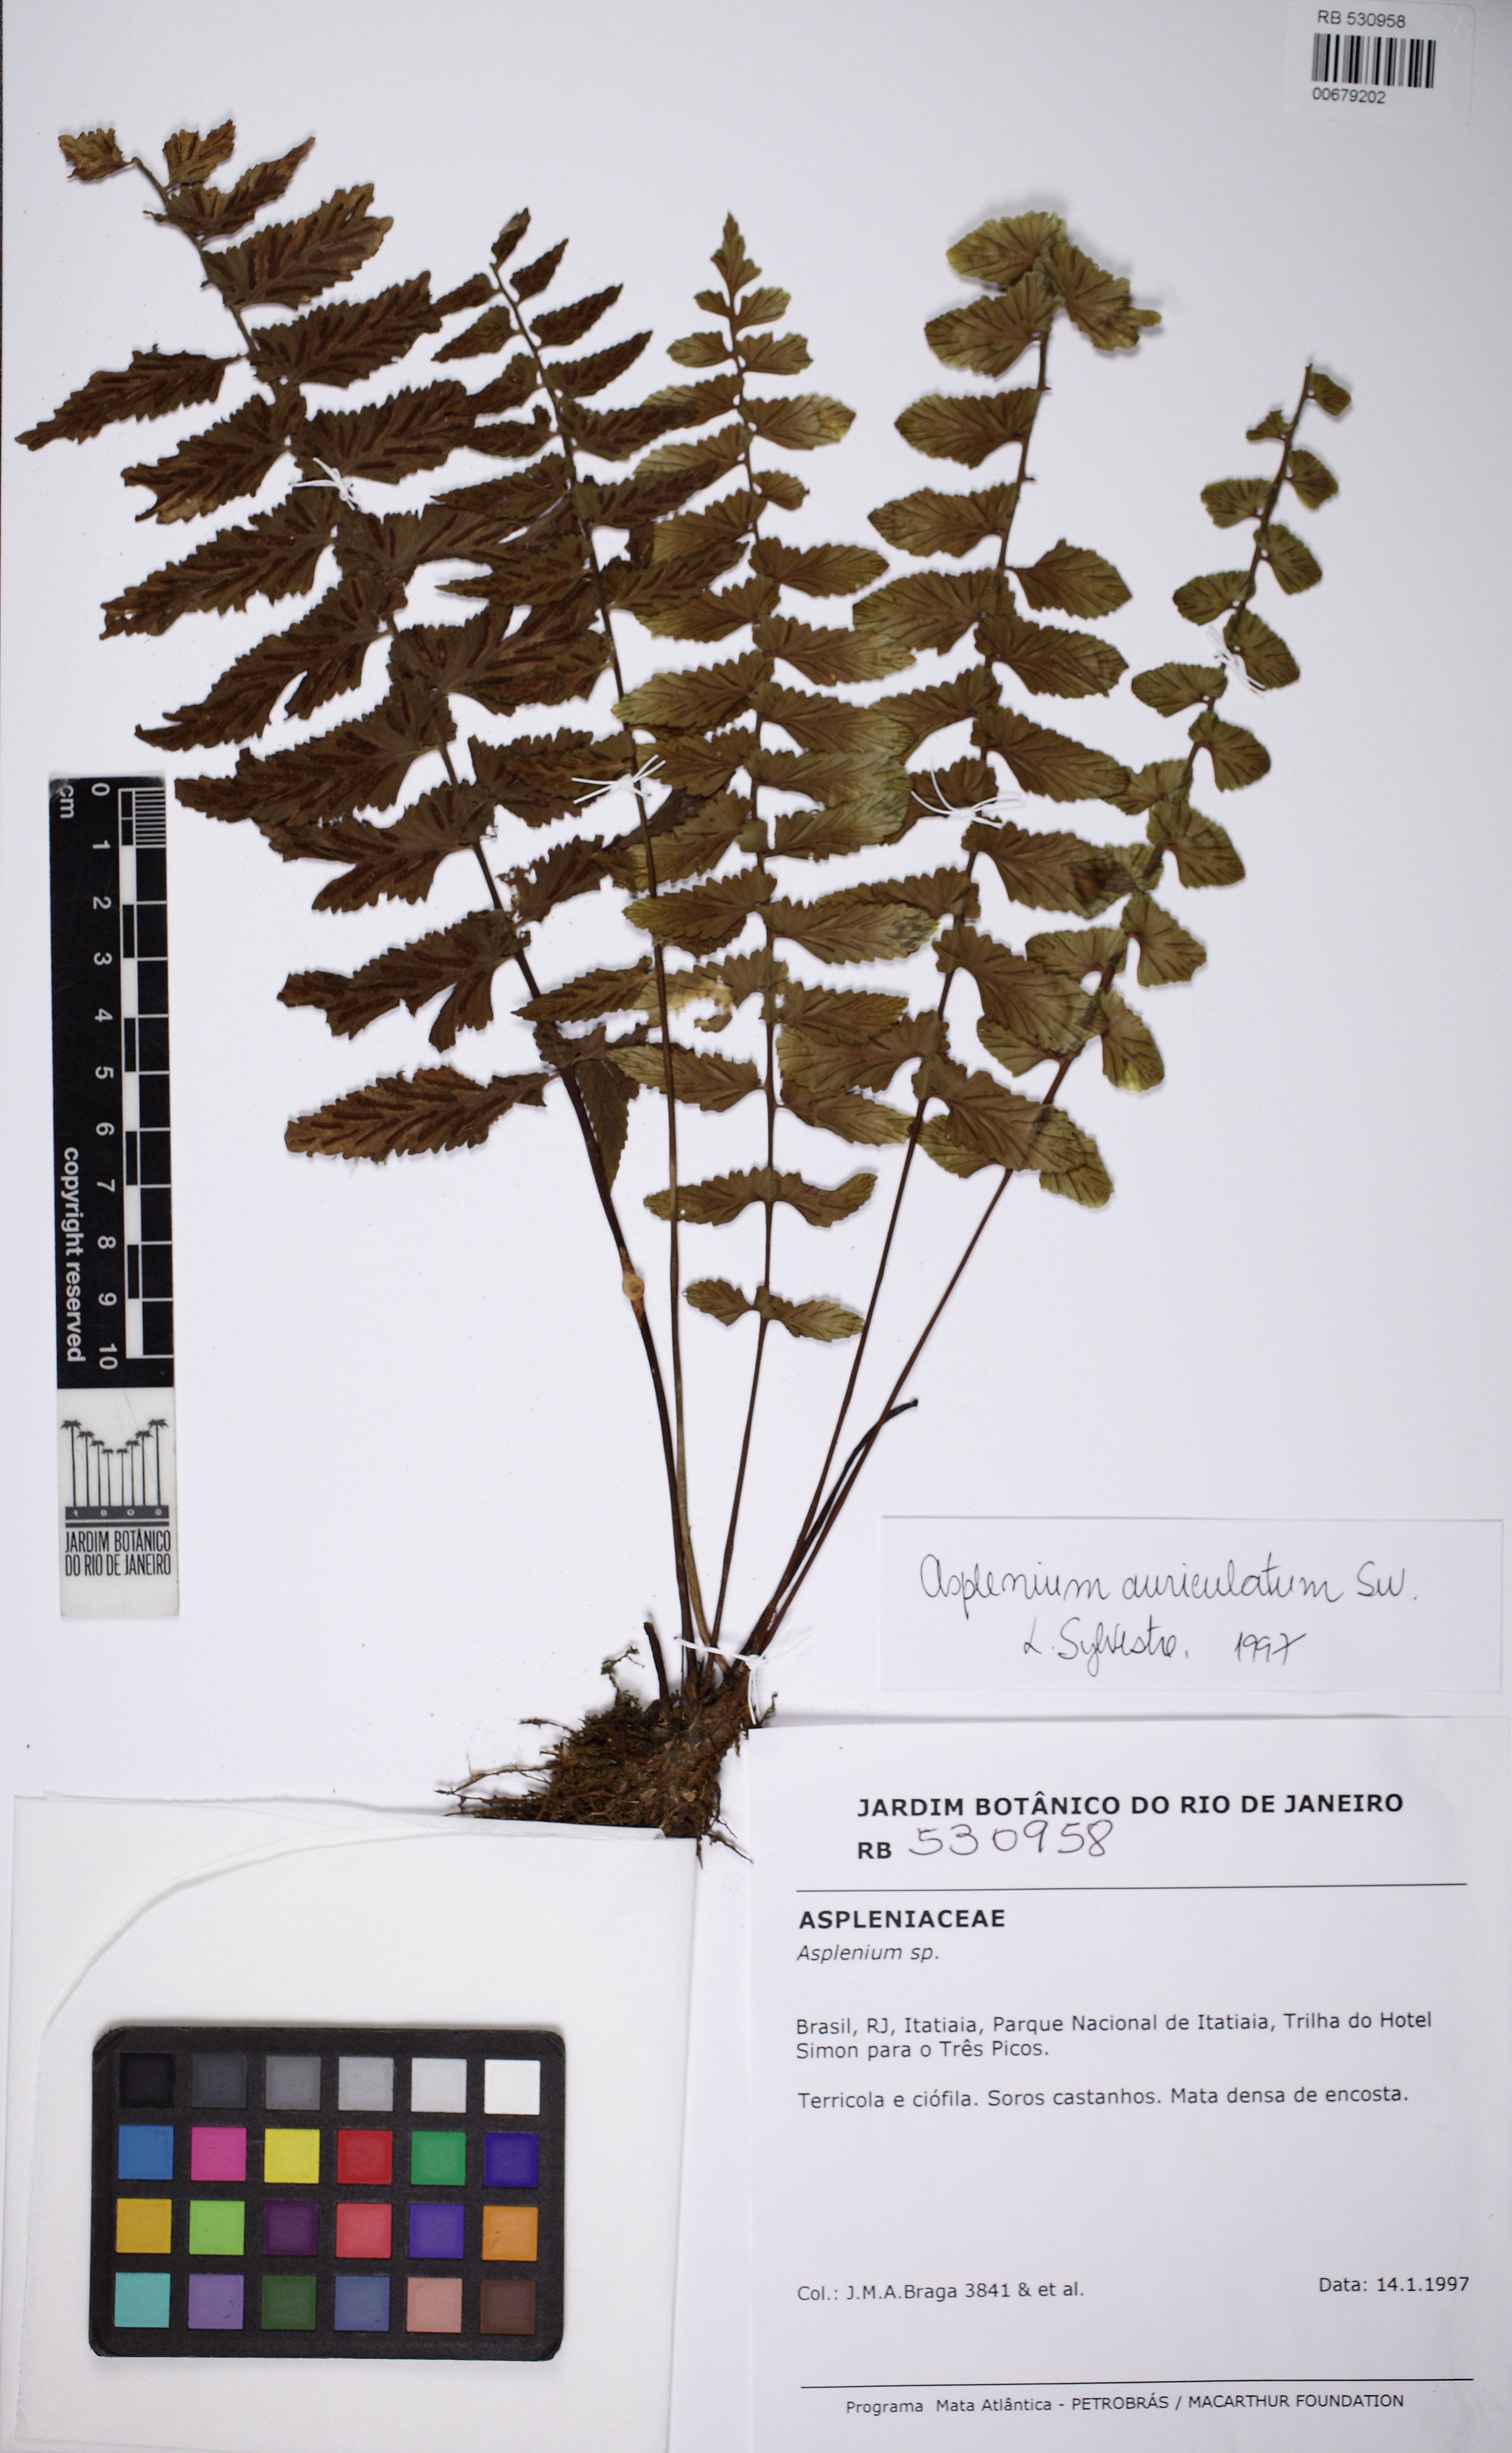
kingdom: Plantae
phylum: Tracheophyta
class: Polypodiopsida
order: Polypodiales
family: Aspleniaceae
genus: Asplenium
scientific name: Asplenium auriculatum
